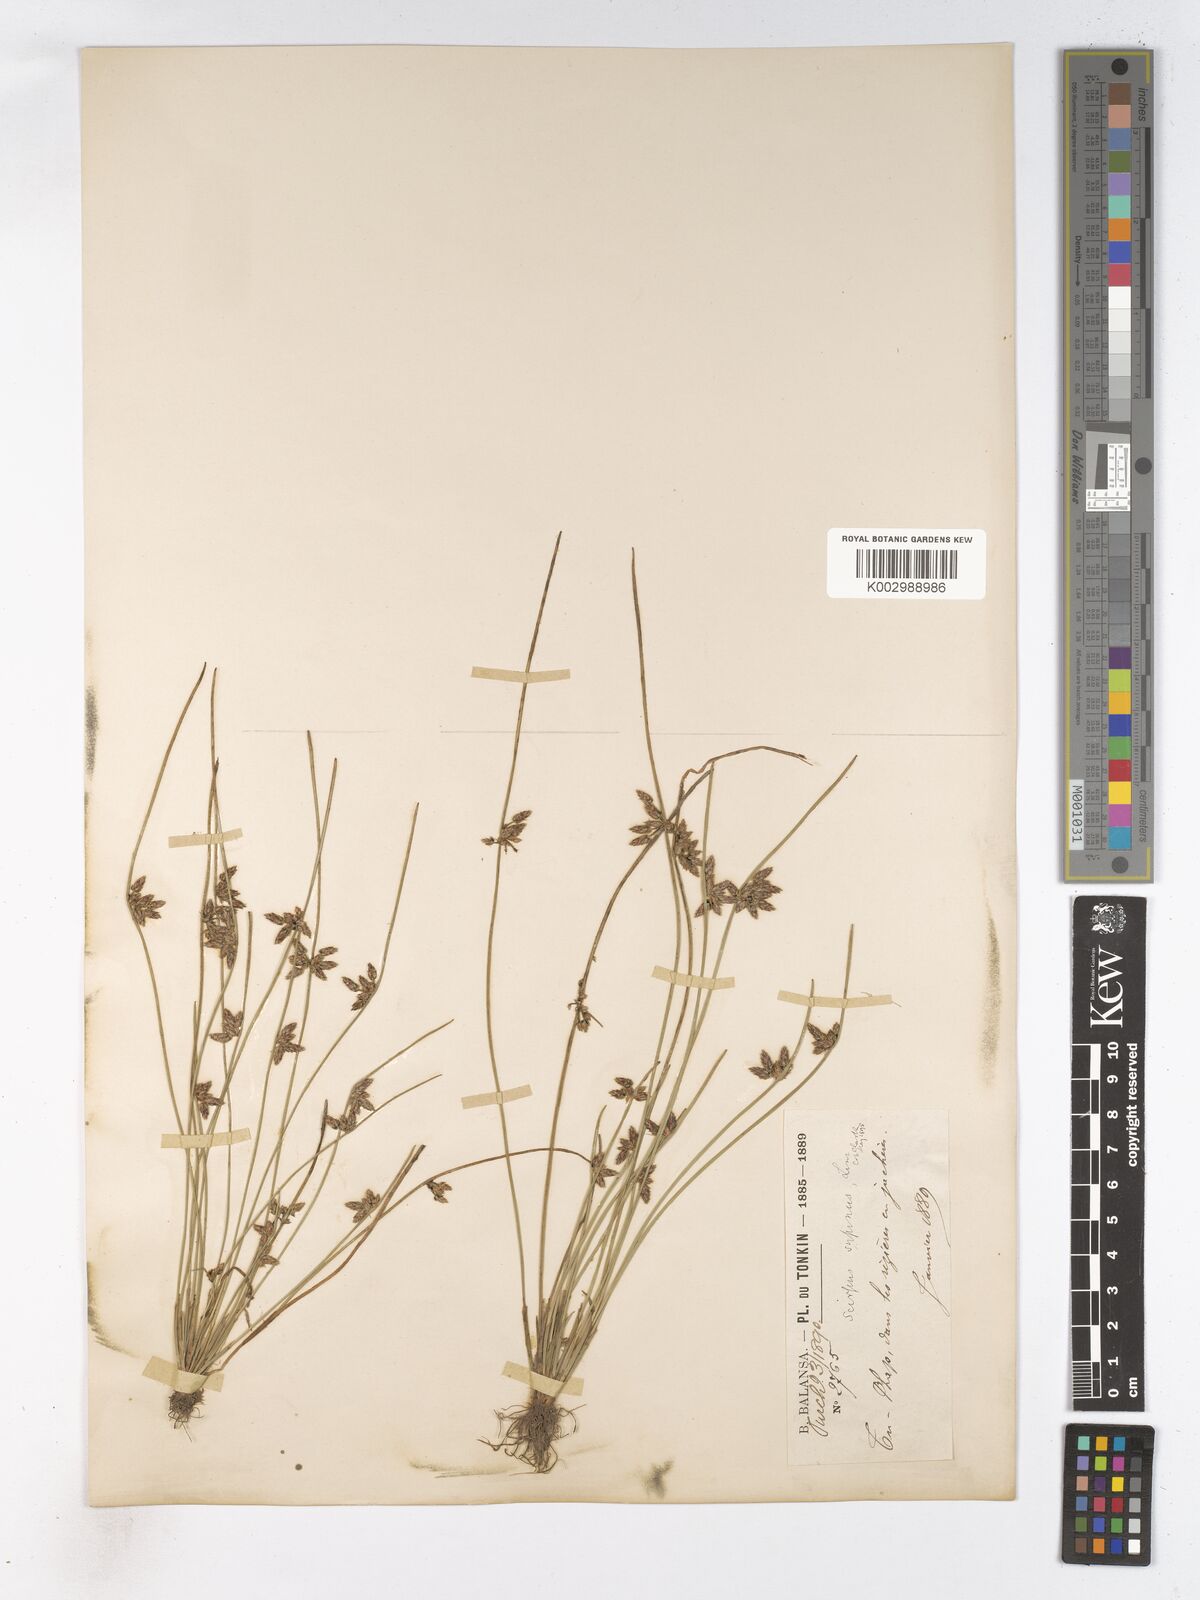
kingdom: Plantae
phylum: Tracheophyta
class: Liliopsida
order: Poales
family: Cyperaceae
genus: Schoenoplectiella
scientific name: Schoenoplectiella lateriflora
